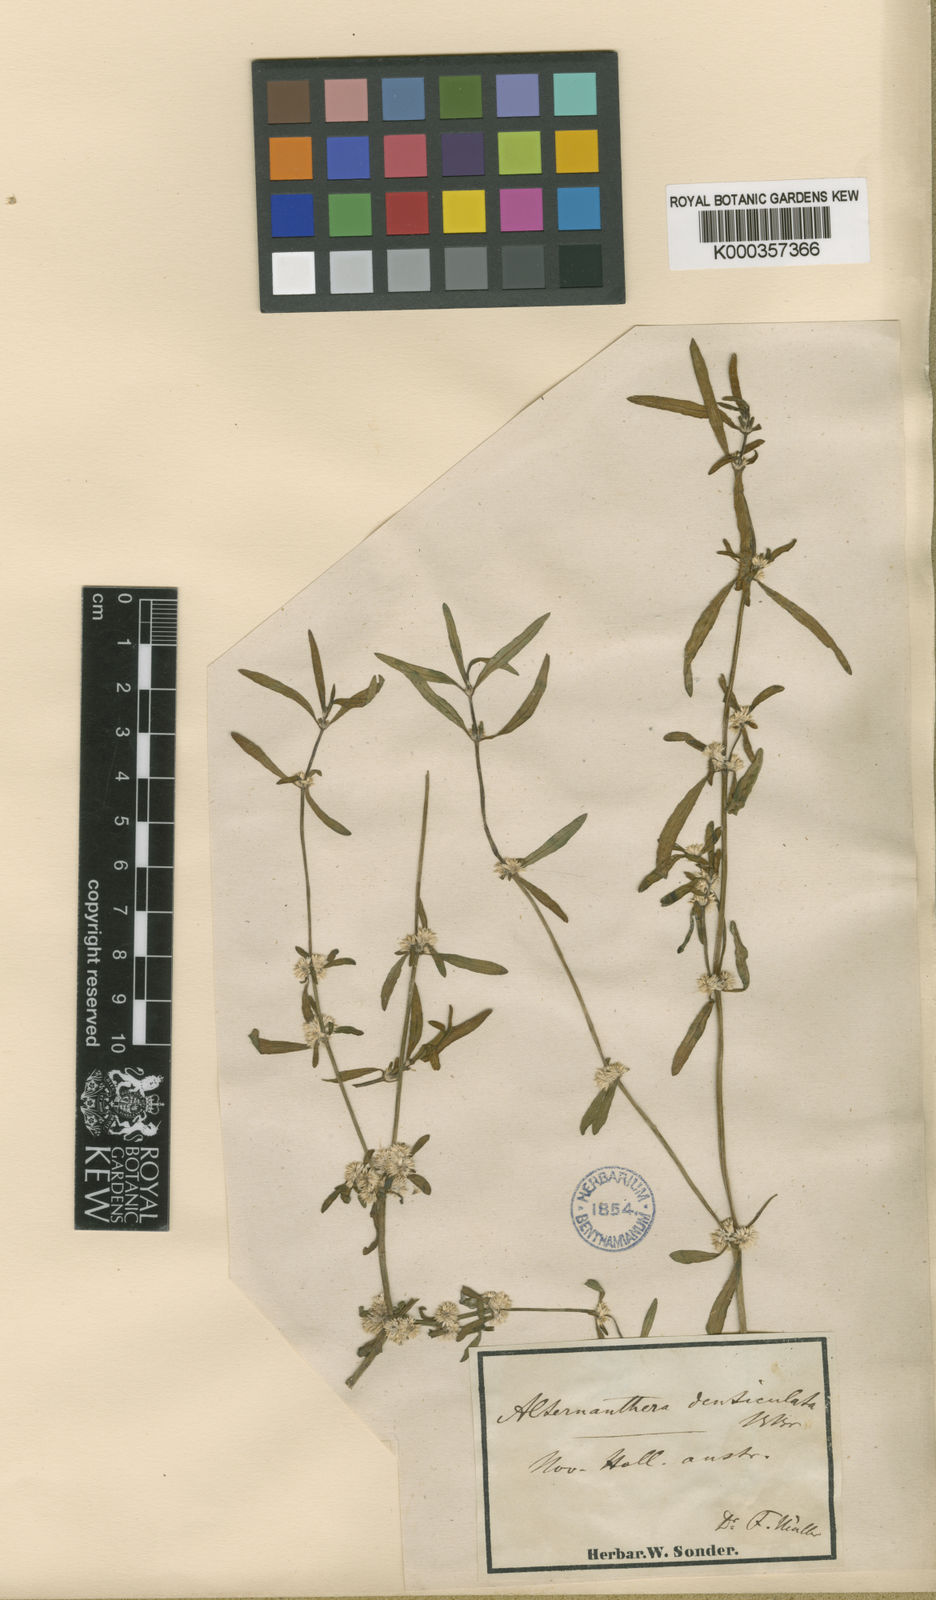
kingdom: Plantae
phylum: Tracheophyta
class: Magnoliopsida
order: Caryophyllales
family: Amaranthaceae
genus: Alternanthera
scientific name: Alternanthera denticulata
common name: Lesser joyweed
